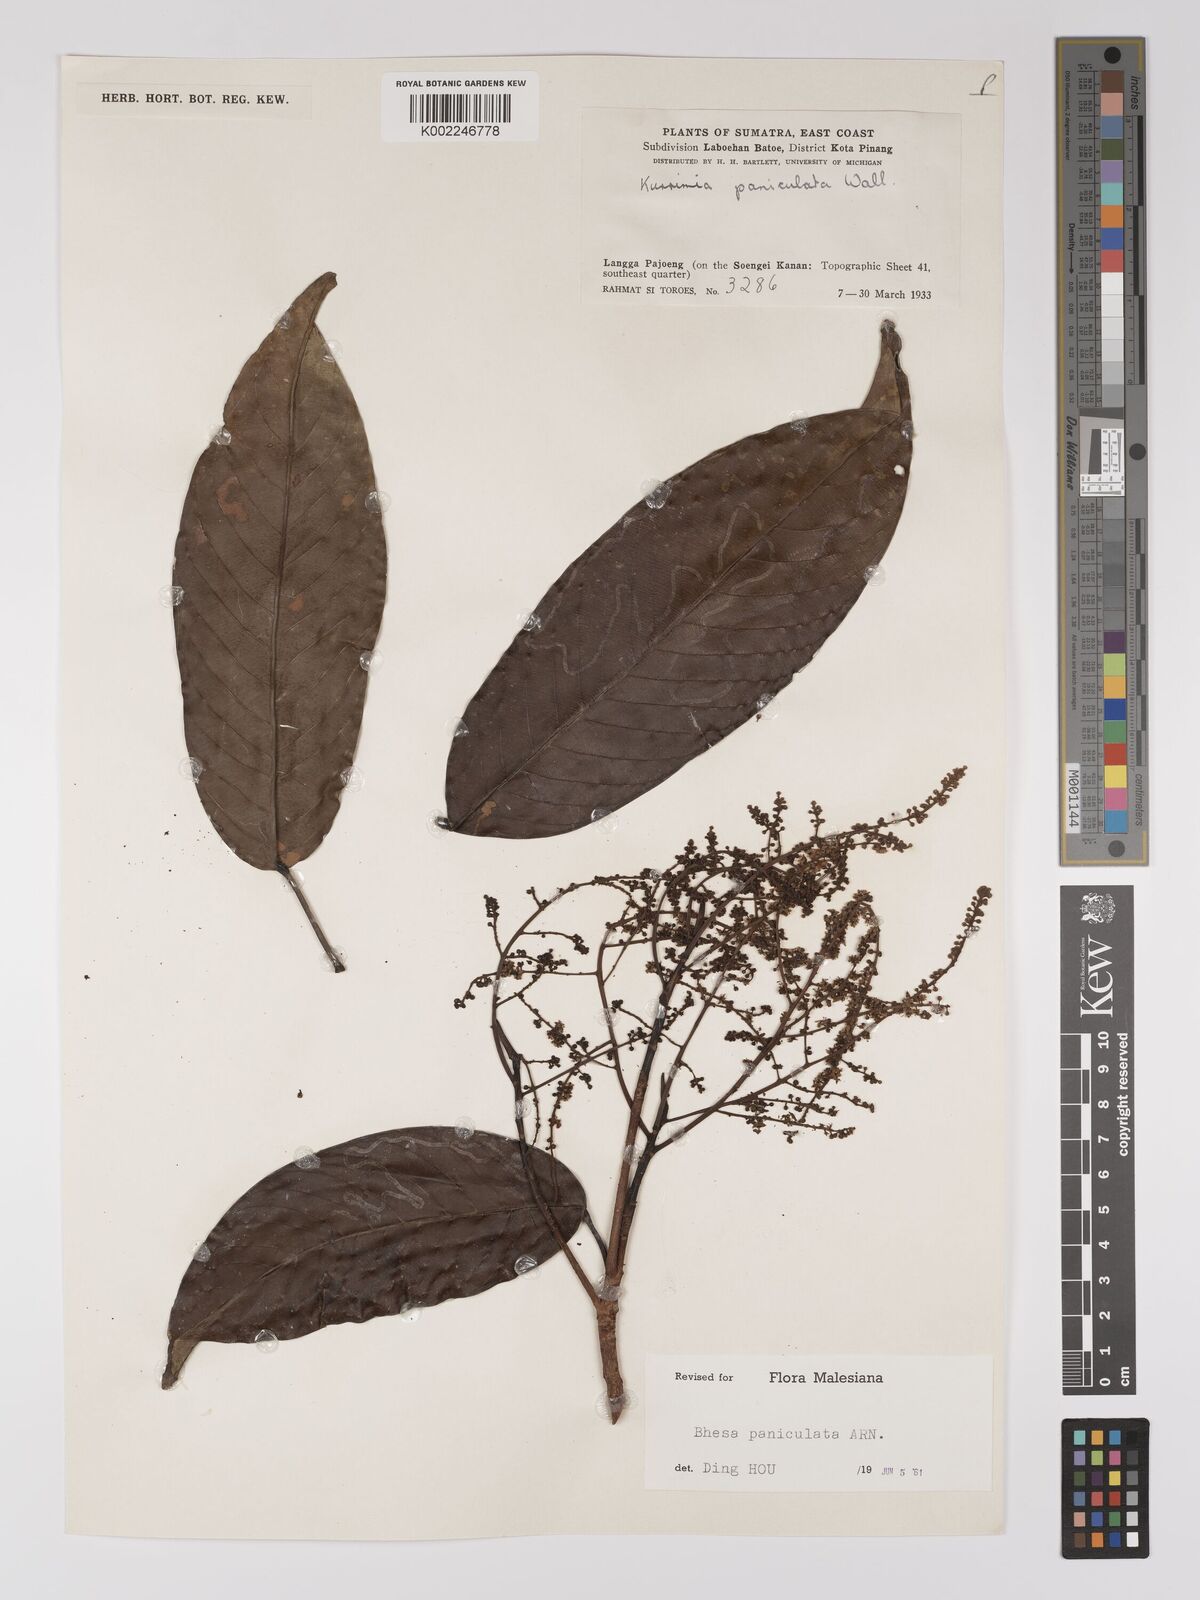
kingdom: Plantae
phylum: Tracheophyta
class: Magnoliopsida
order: Malpighiales
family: Centroplacaceae
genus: Bhesa
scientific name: Bhesa paniculata
